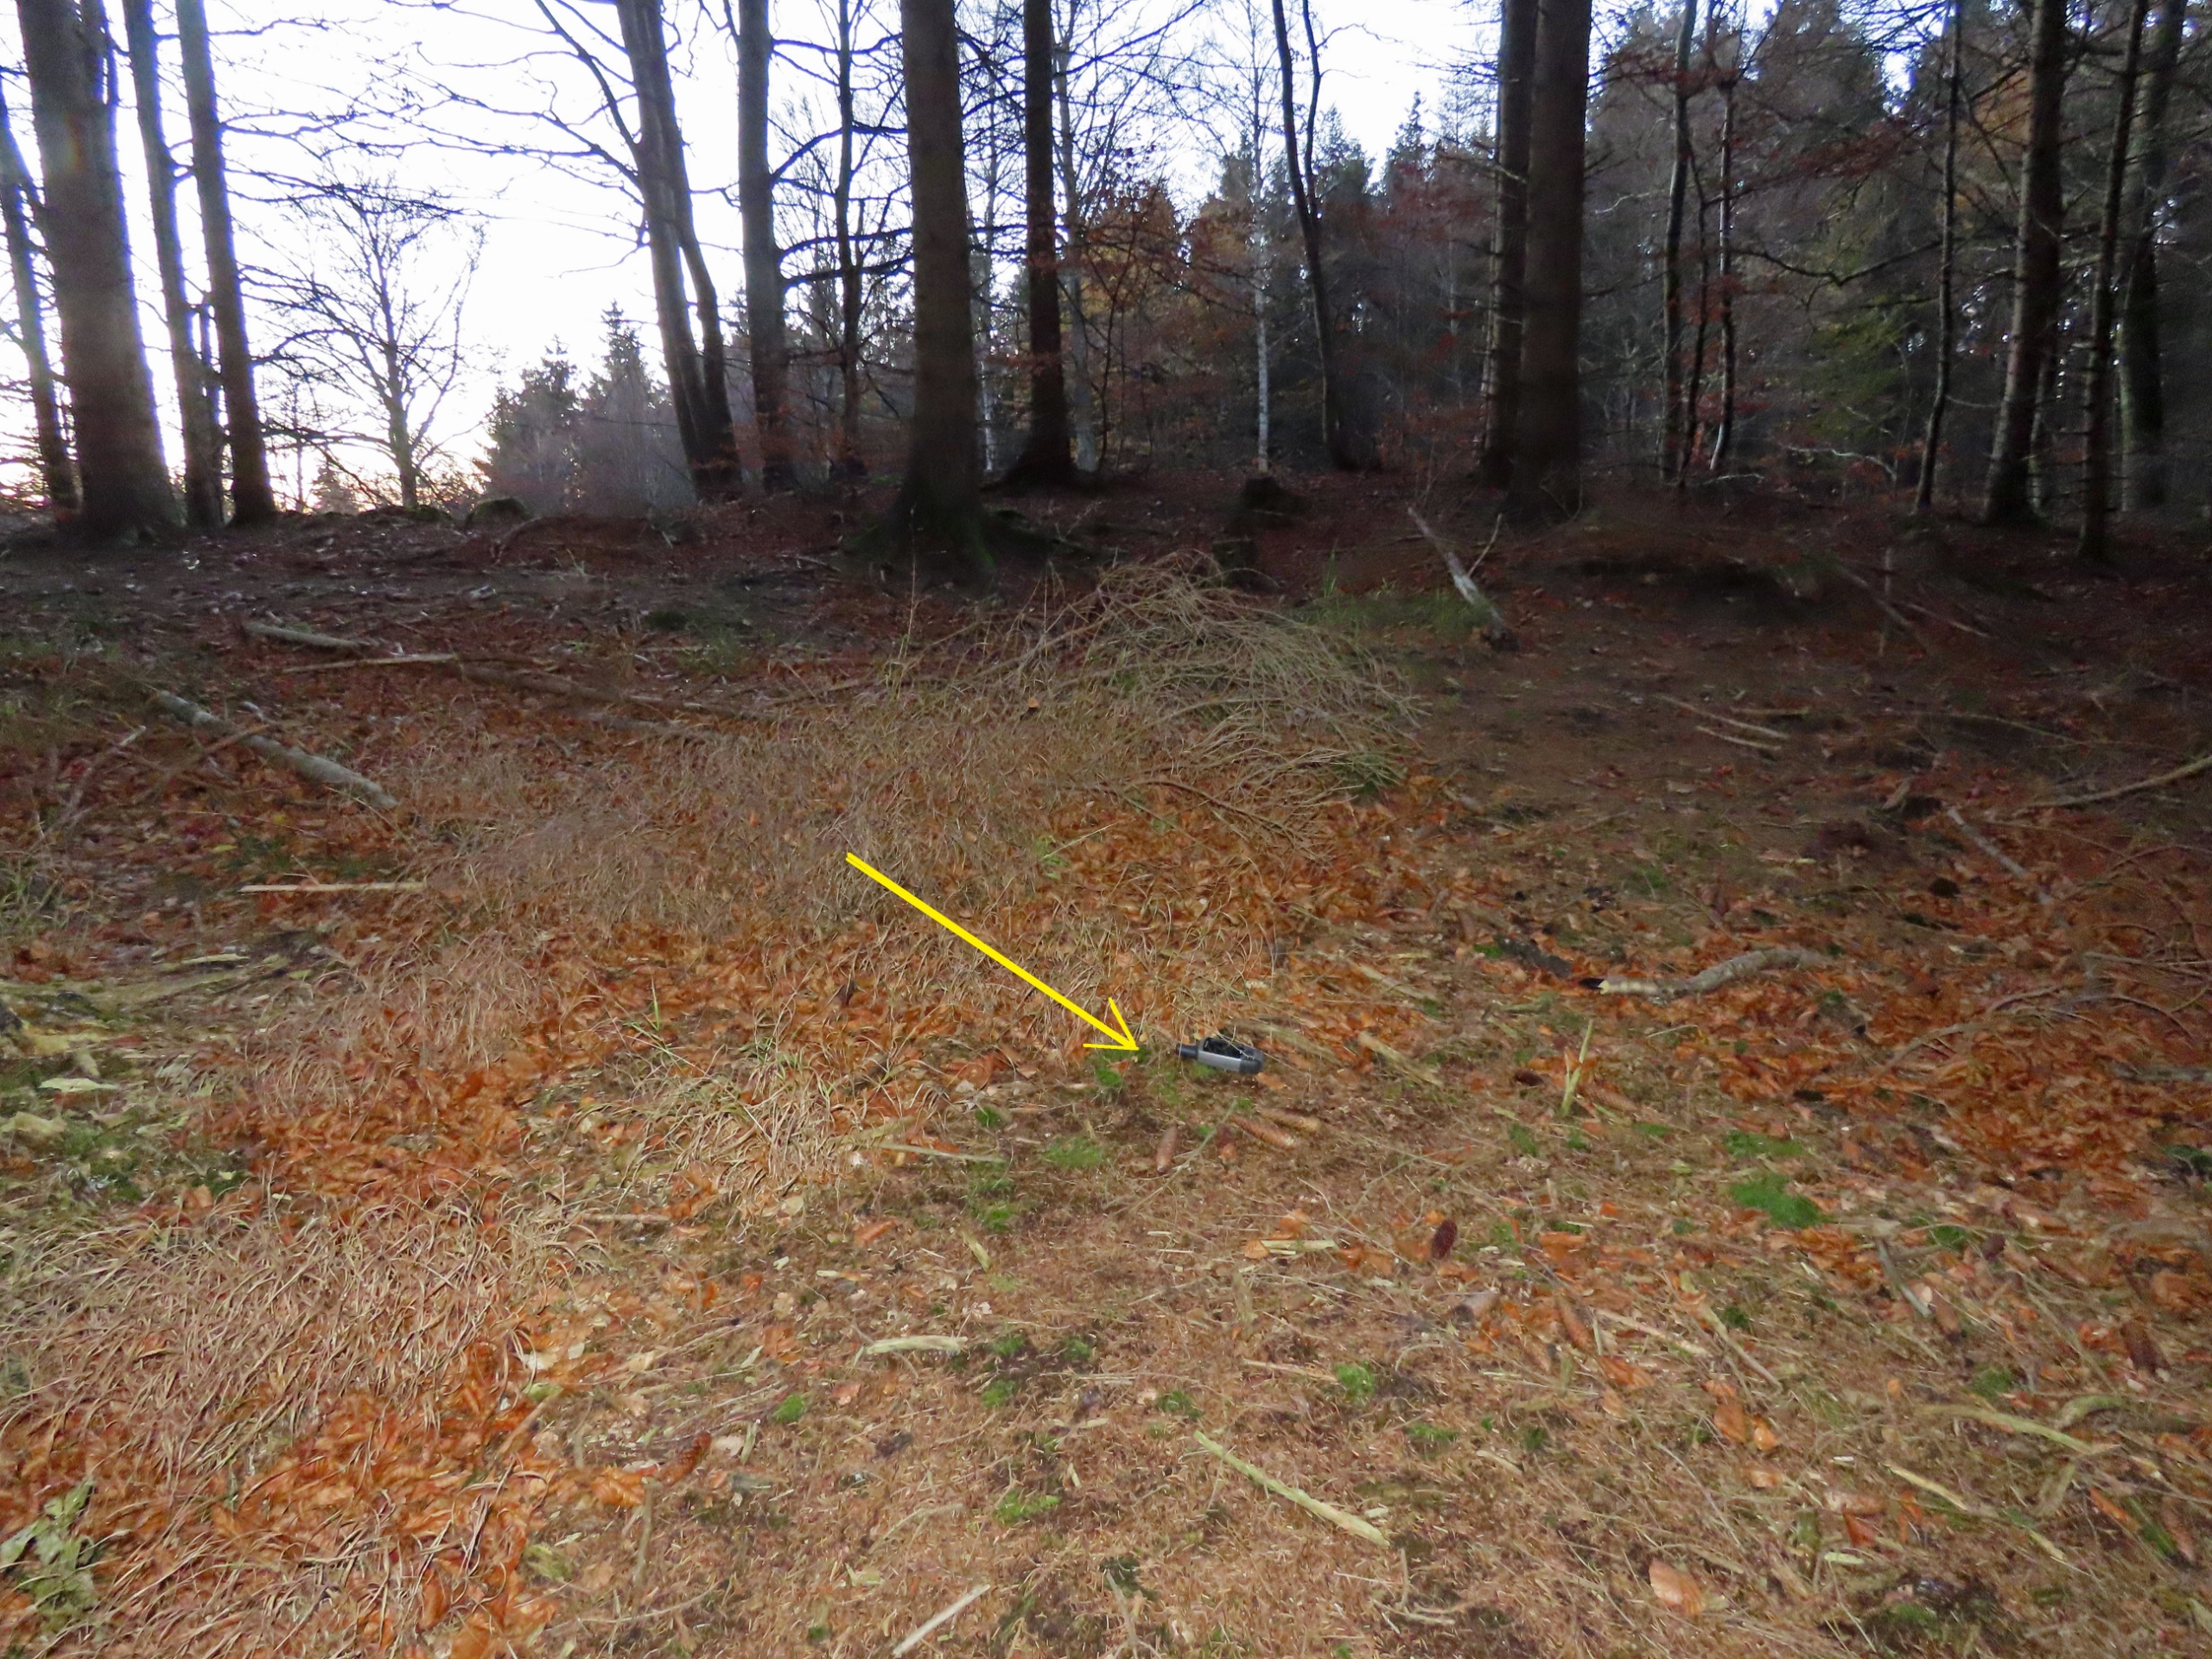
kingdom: Plantae
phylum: Bryophyta
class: Bryopsida
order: Buxbaumiales
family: Buxbaumiaceae
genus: Buxbaumia
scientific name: Buxbaumia viridis
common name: Grøn buxbaumia
